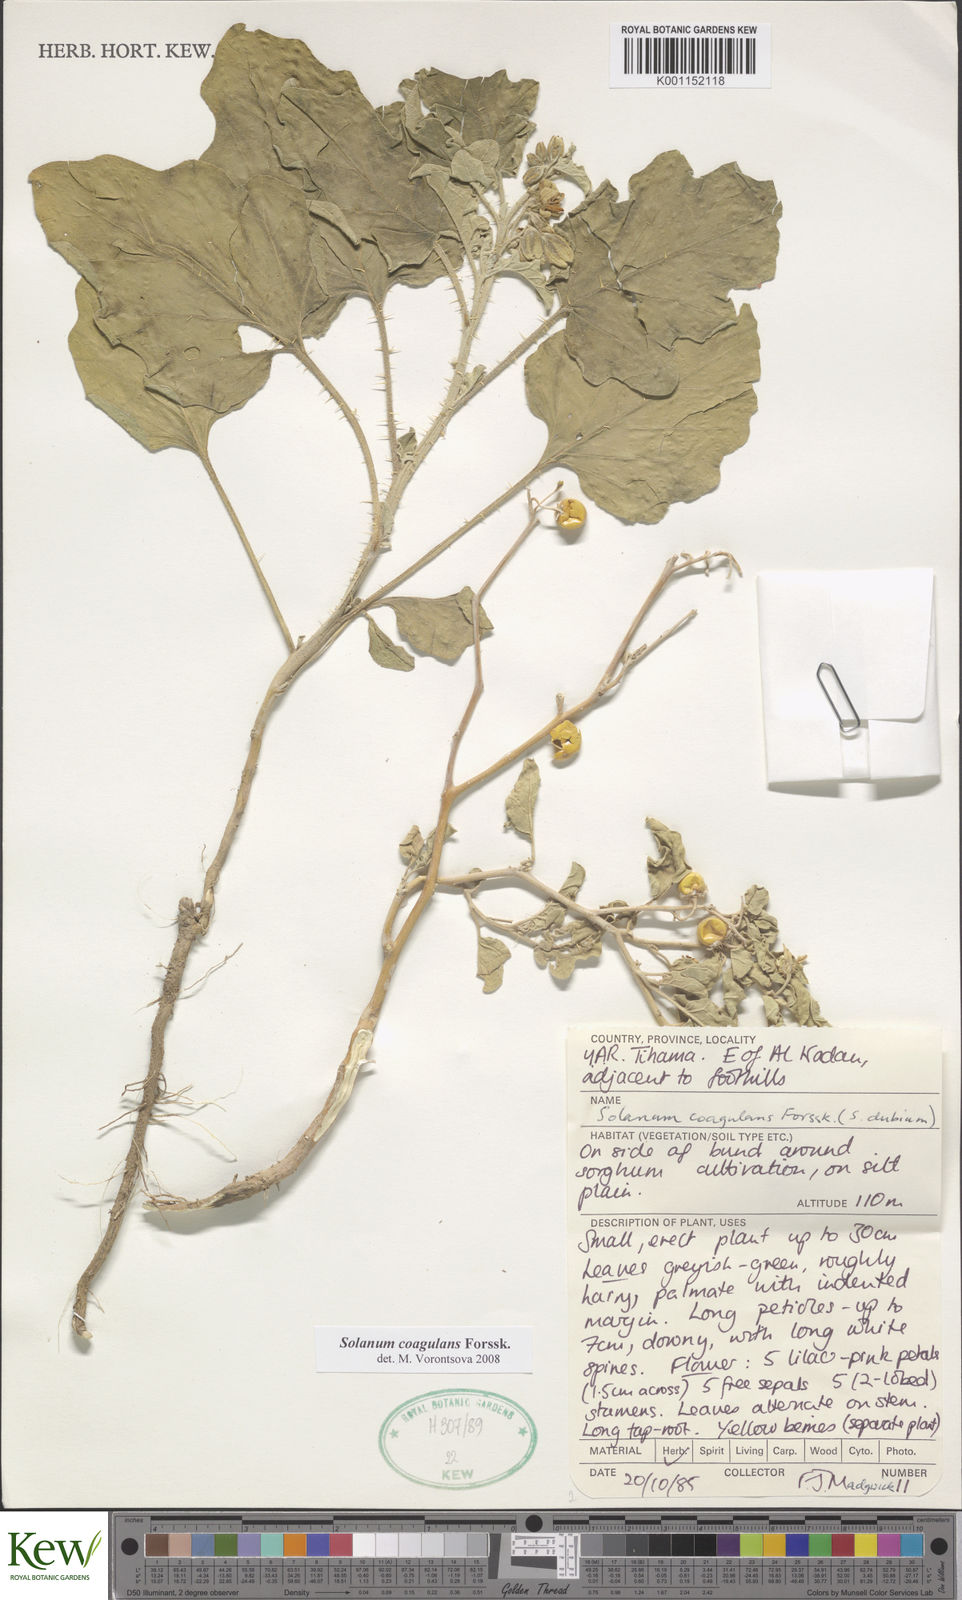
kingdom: Plantae
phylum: Tracheophyta
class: Magnoliopsida
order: Solanales
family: Solanaceae
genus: Solanum
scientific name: Solanum coagulans
